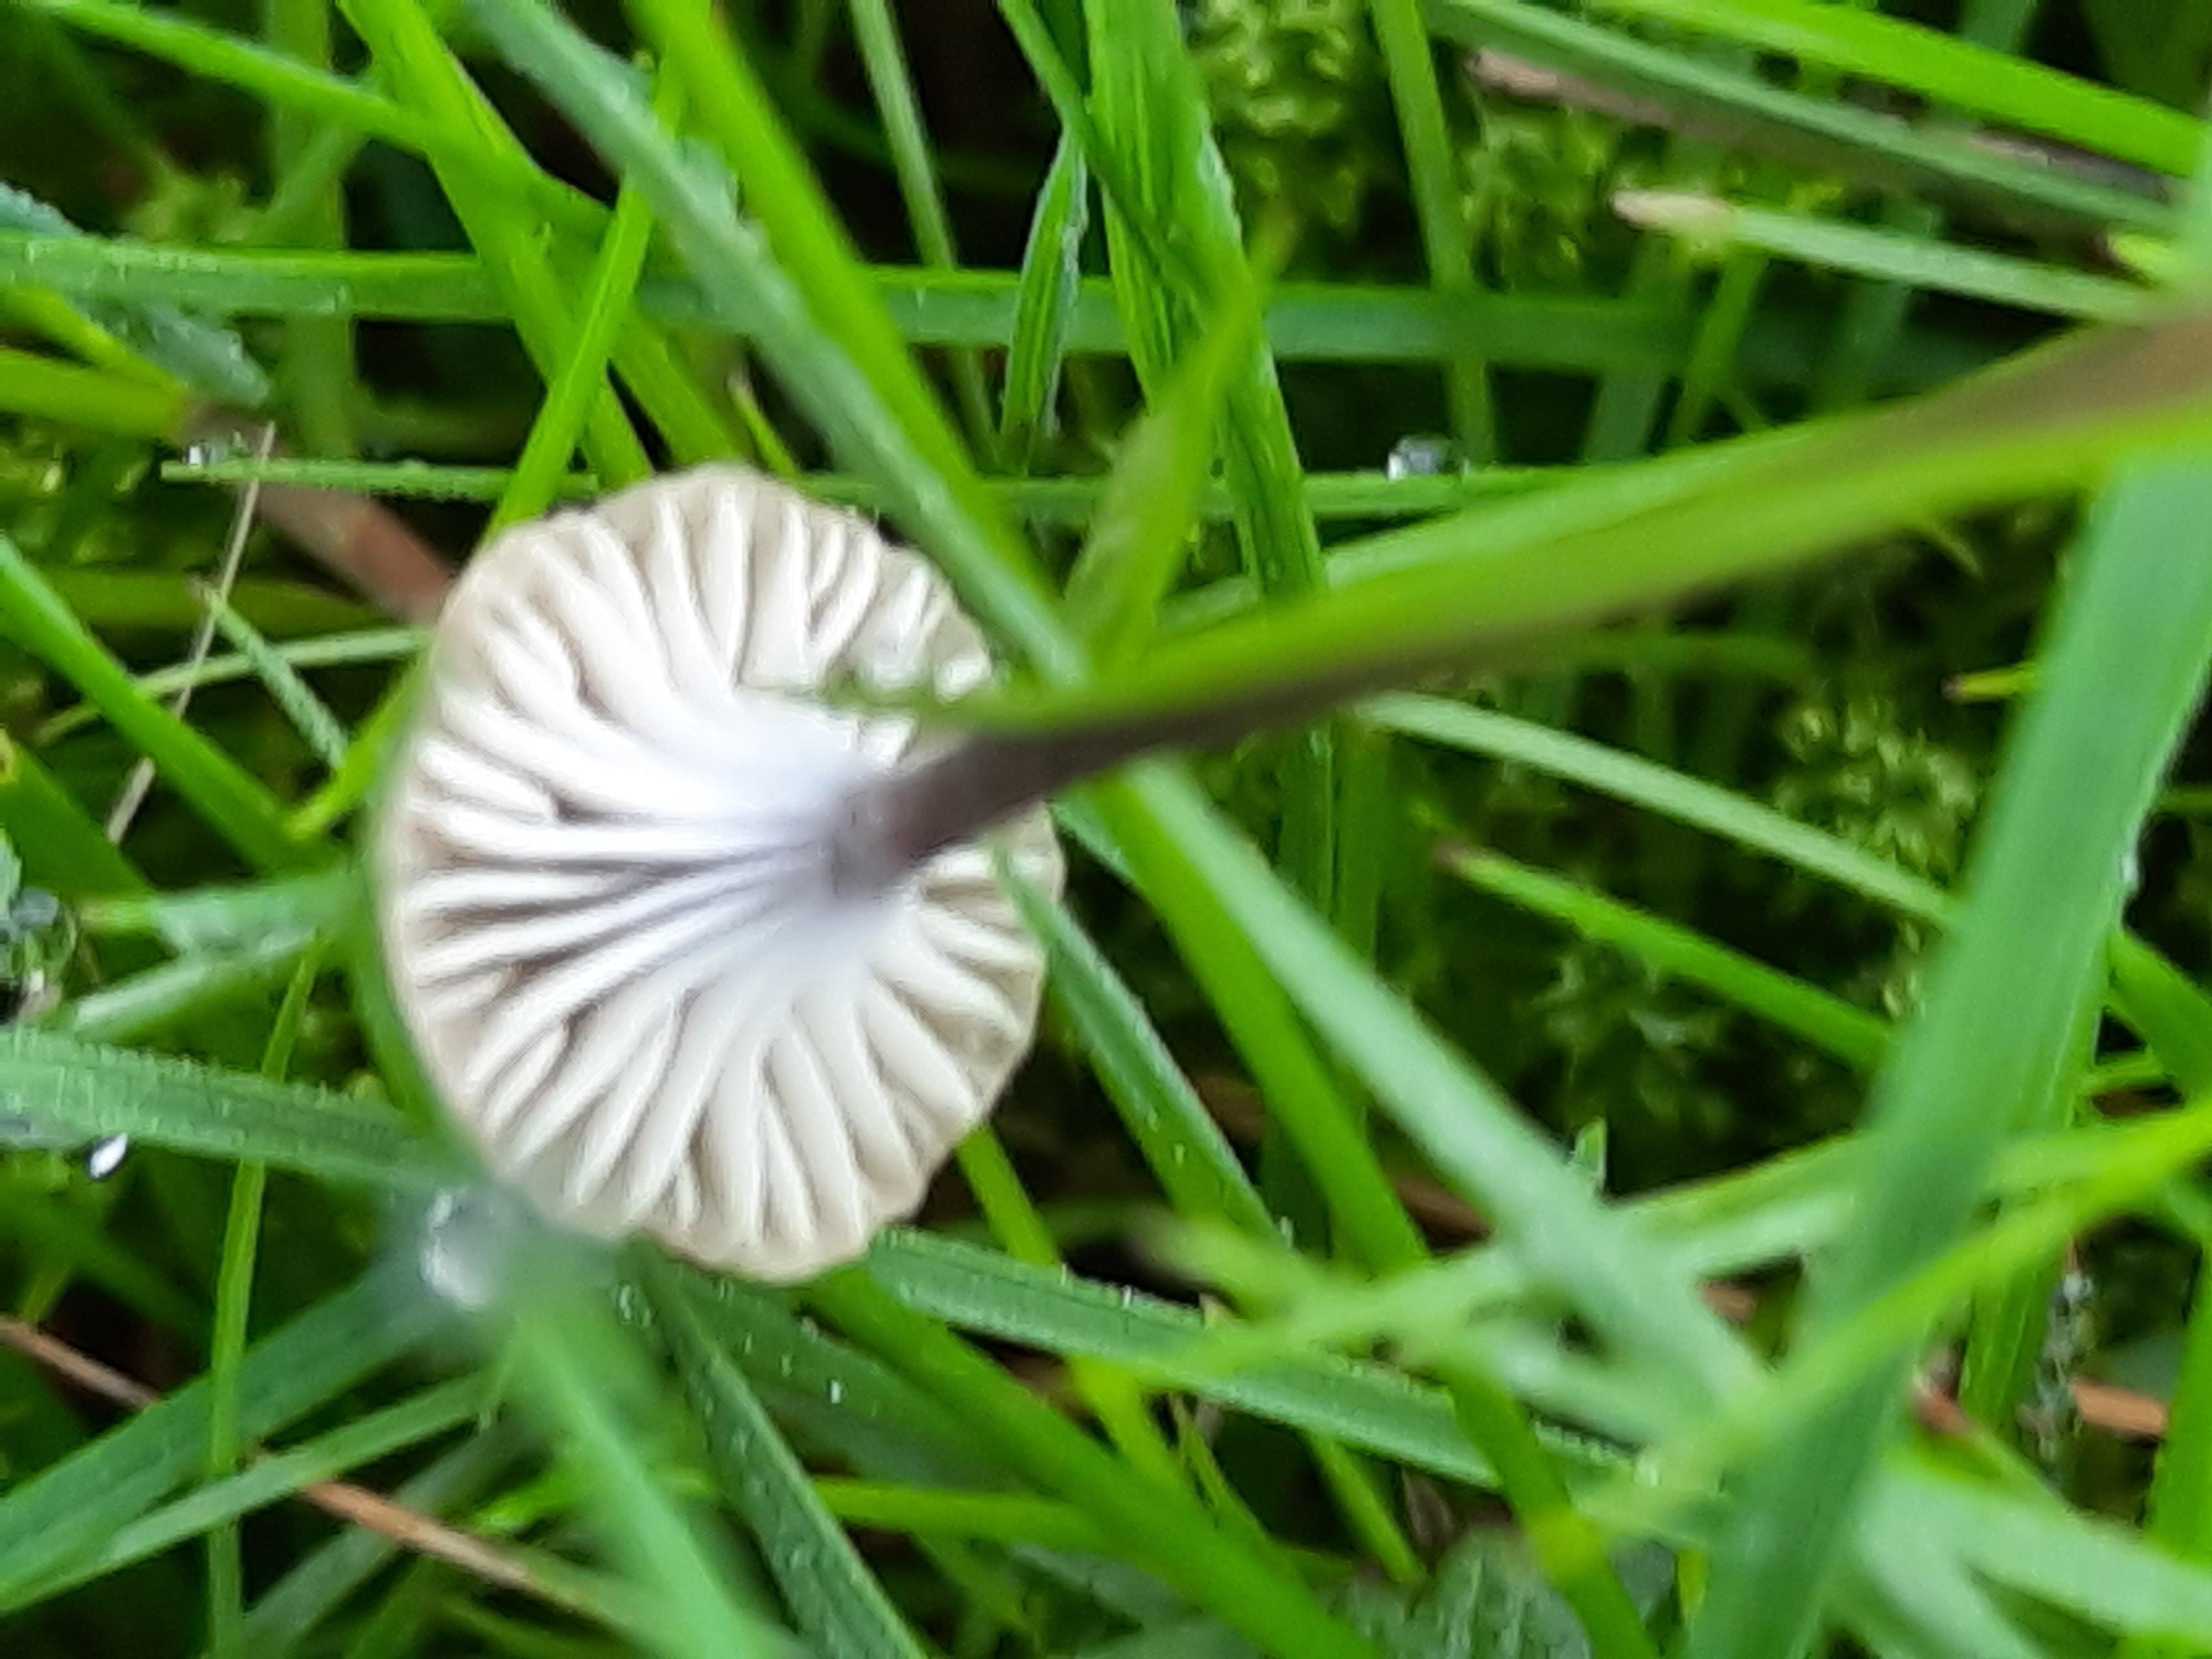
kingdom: Fungi
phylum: Basidiomycota
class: Agaricomycetes
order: Hymenochaetales
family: Rickenellaceae
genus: Rickenella
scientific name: Rickenella swartzii
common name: finstokket mosnavlehat
